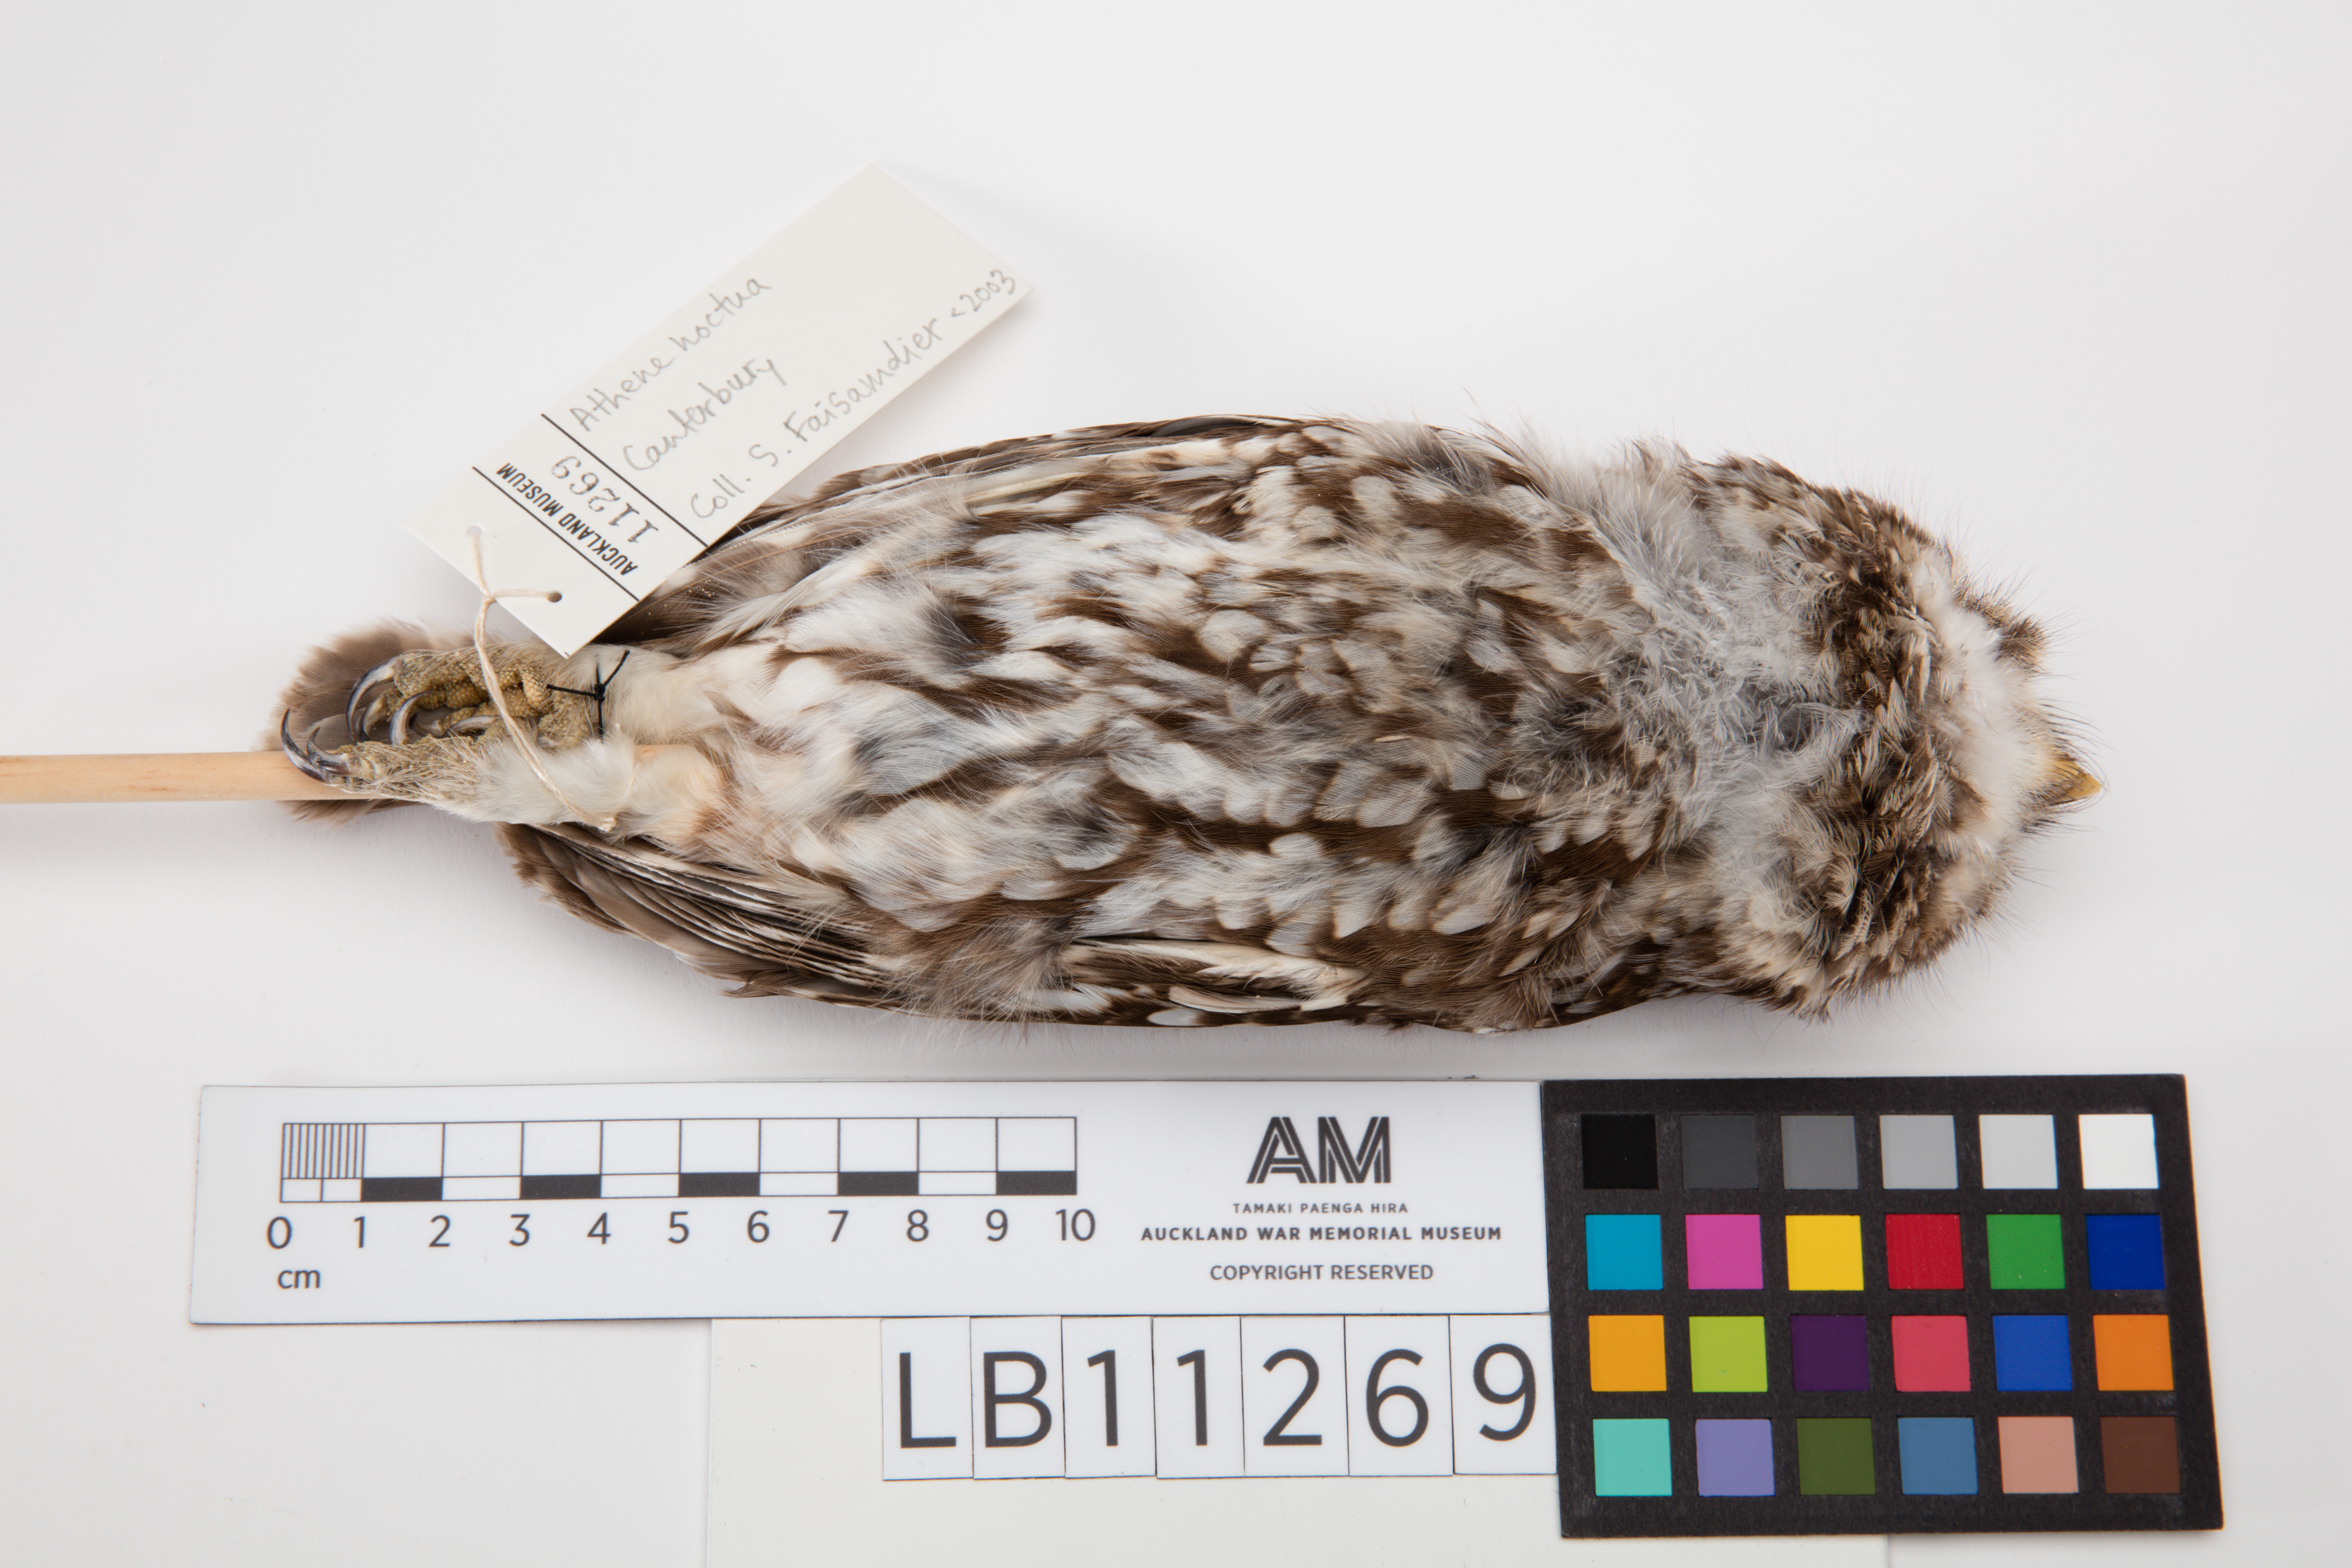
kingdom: Animalia
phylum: Chordata
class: Aves
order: Strigiformes
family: Strigidae
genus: Athene
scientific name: Athene noctua
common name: Little owl
